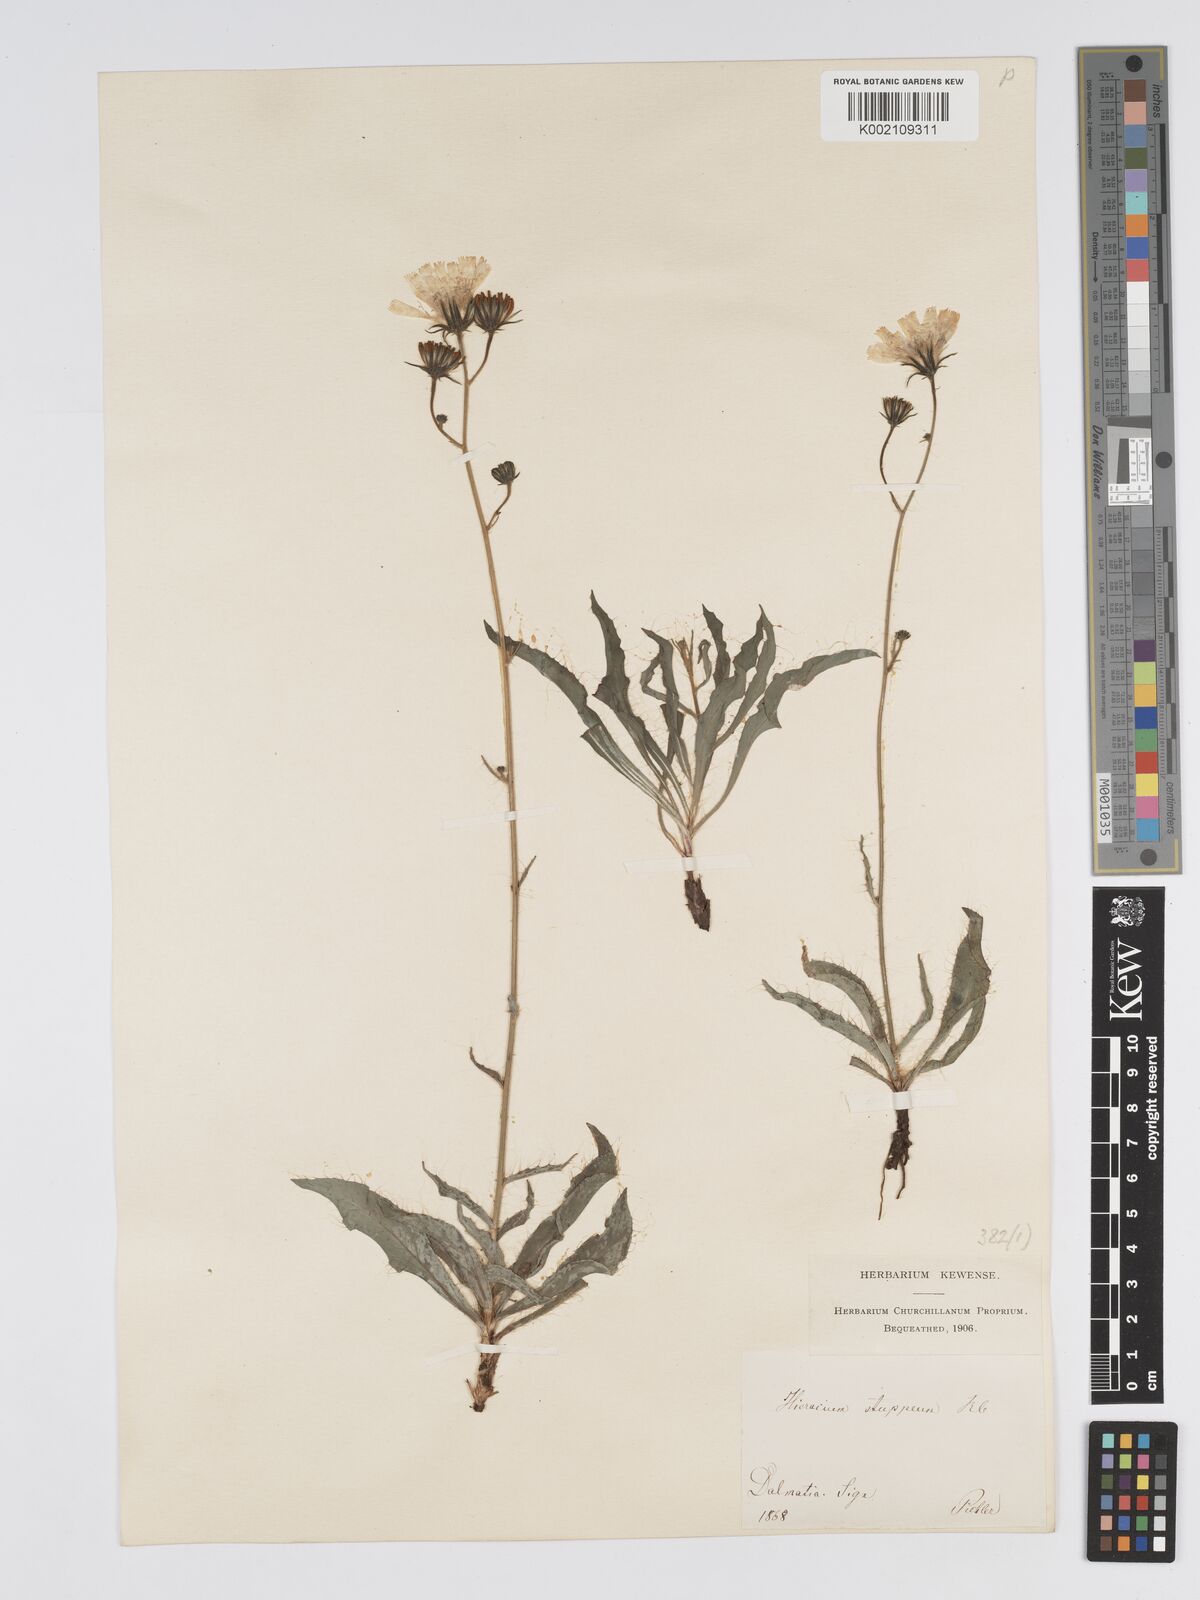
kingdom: Plantae
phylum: Tracheophyta
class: Magnoliopsida
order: Asterales
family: Asteraceae
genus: Hieracium
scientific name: Hieracium heterogynum
